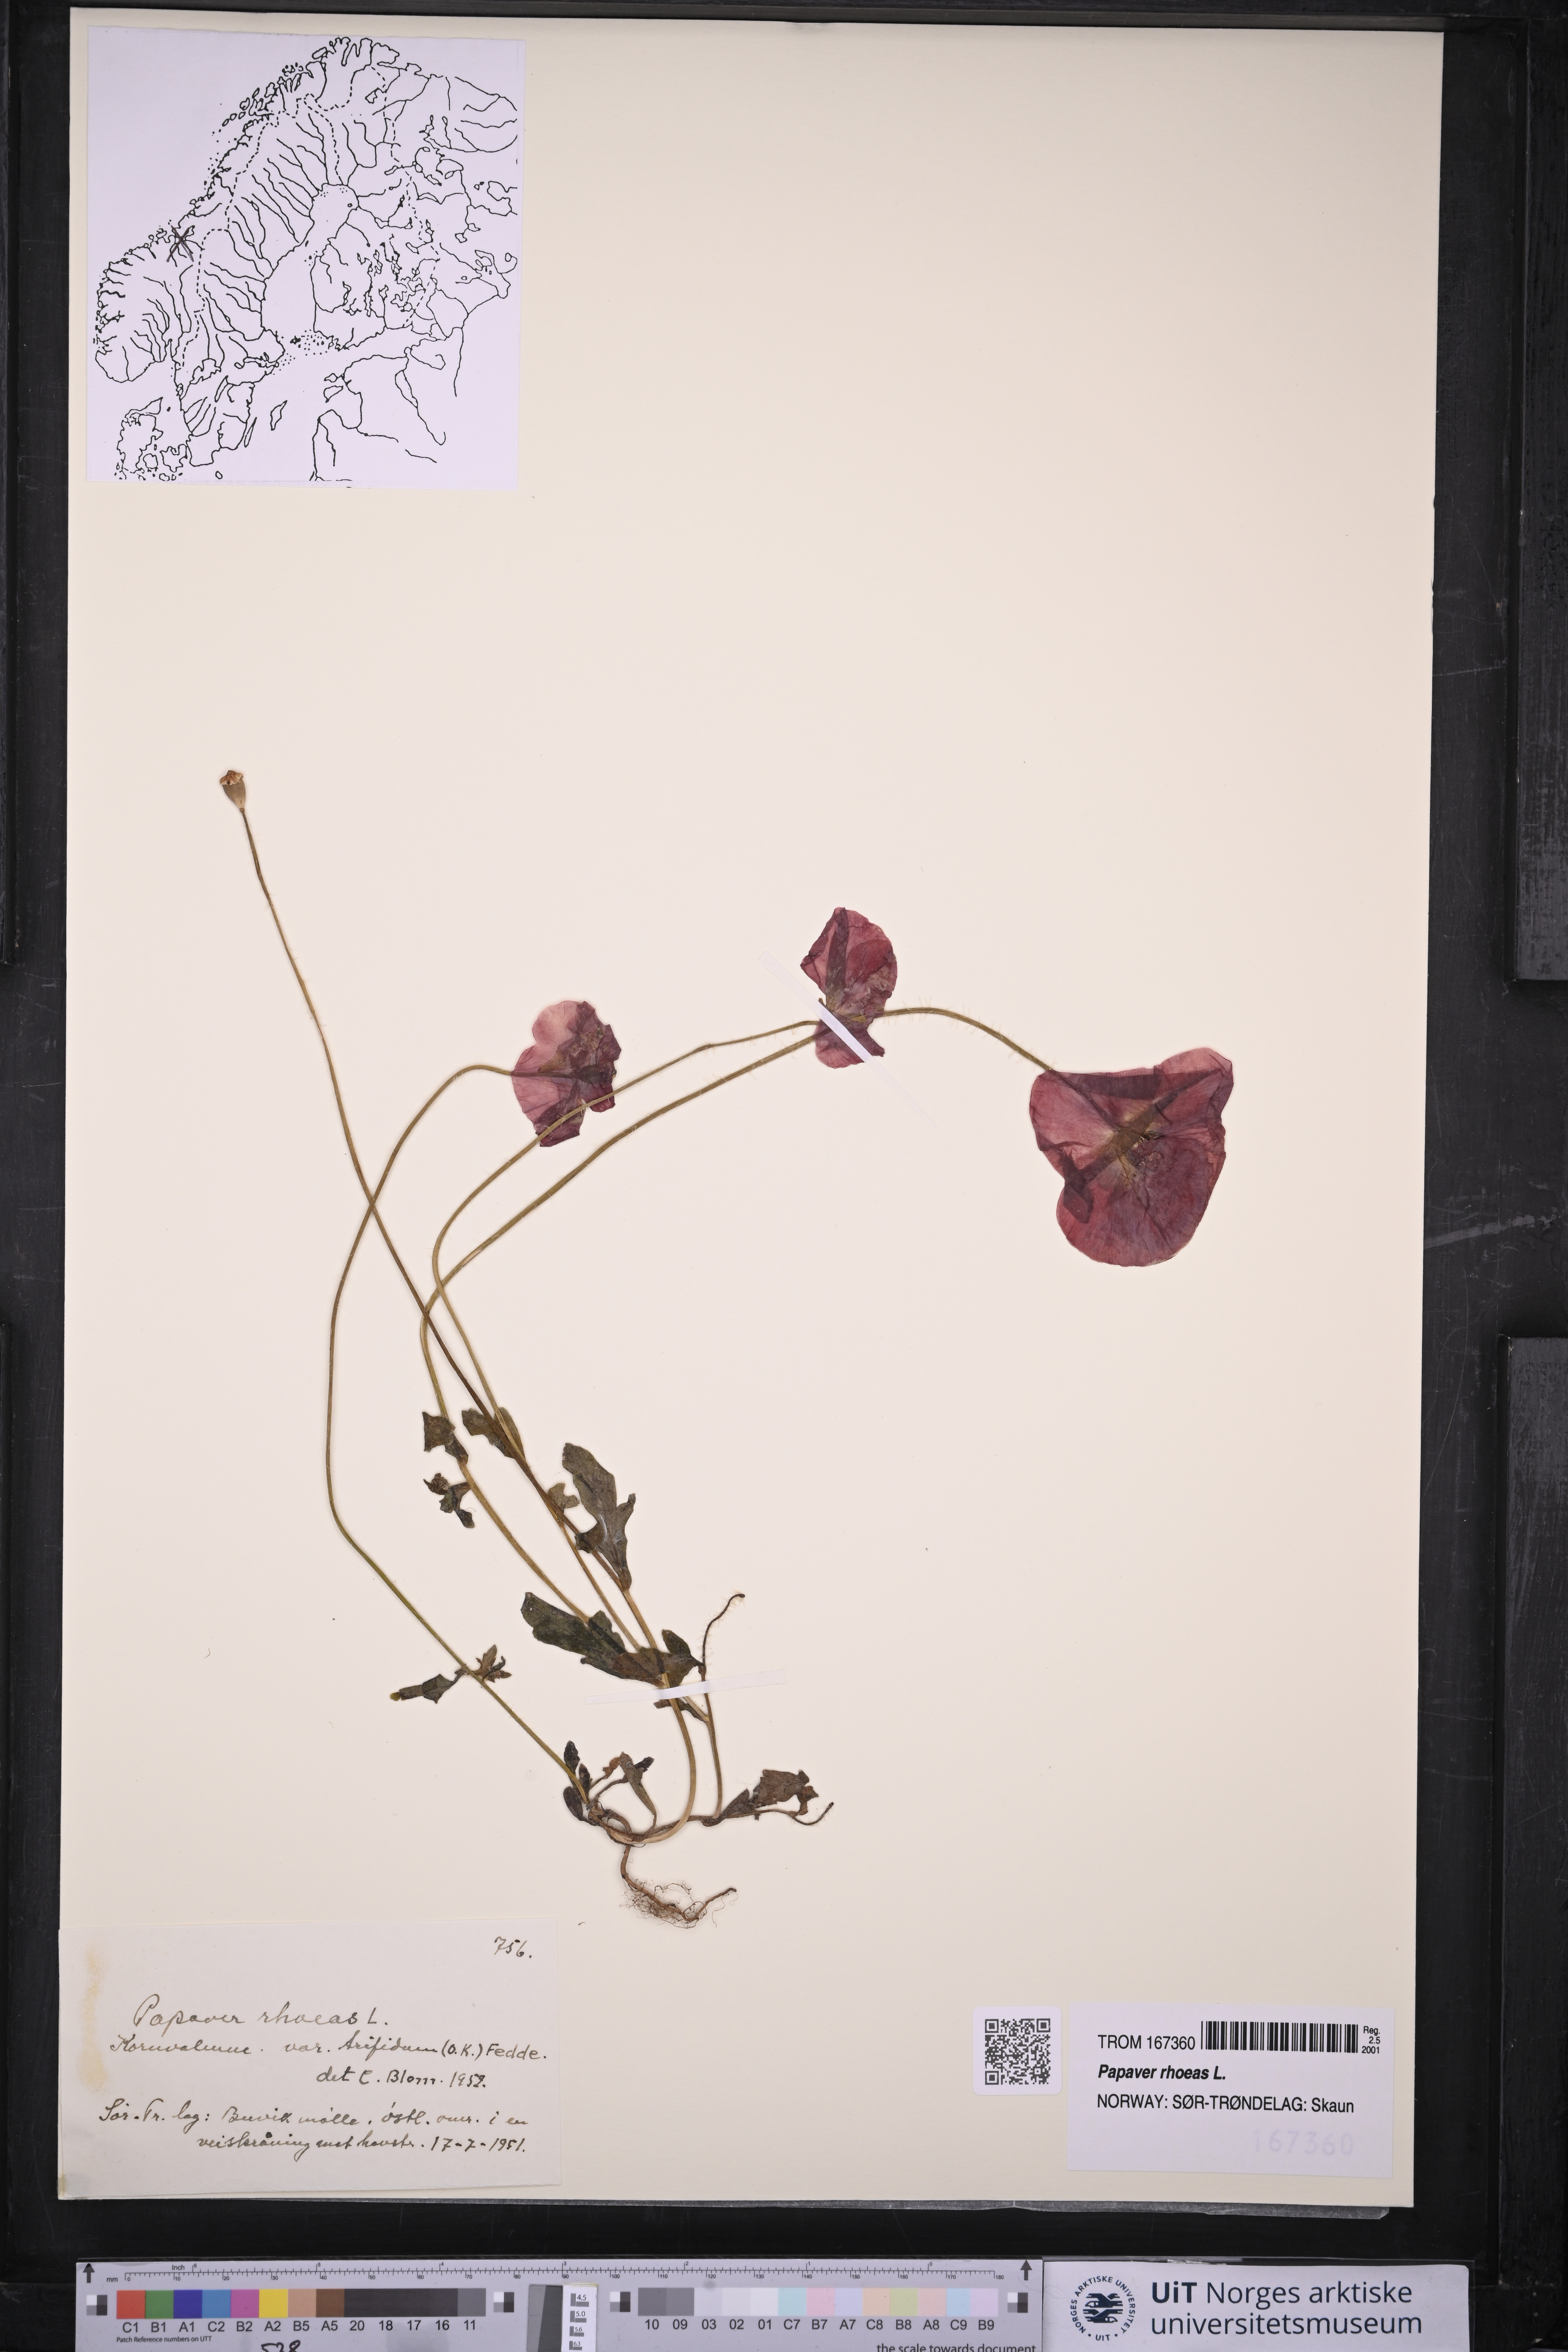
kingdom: Plantae
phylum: Tracheophyta
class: Magnoliopsida
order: Ranunculales
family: Papaveraceae
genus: Papaver
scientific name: Papaver rhoeas
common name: Corn poppy
